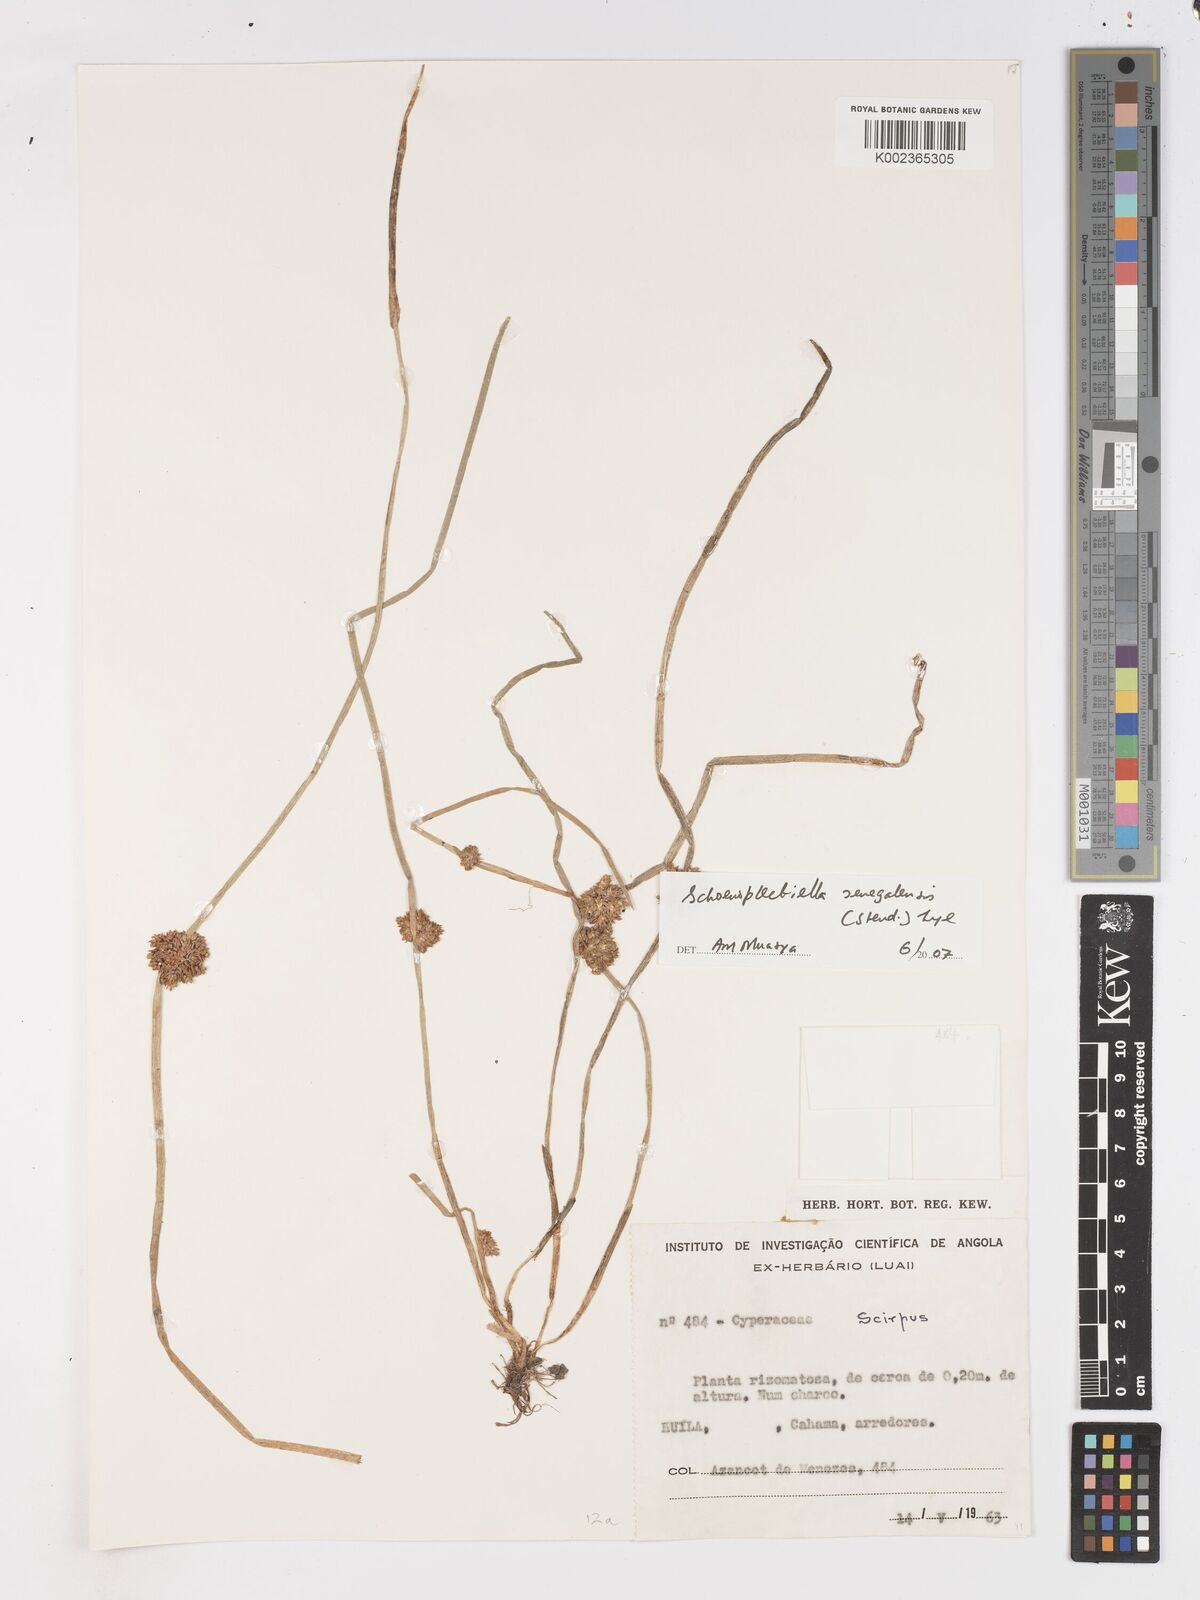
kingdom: Plantae
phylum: Tracheophyta
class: Liliopsida
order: Poales
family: Cyperaceae
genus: Schoenoplectiella
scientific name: Schoenoplectiella senegalensis
